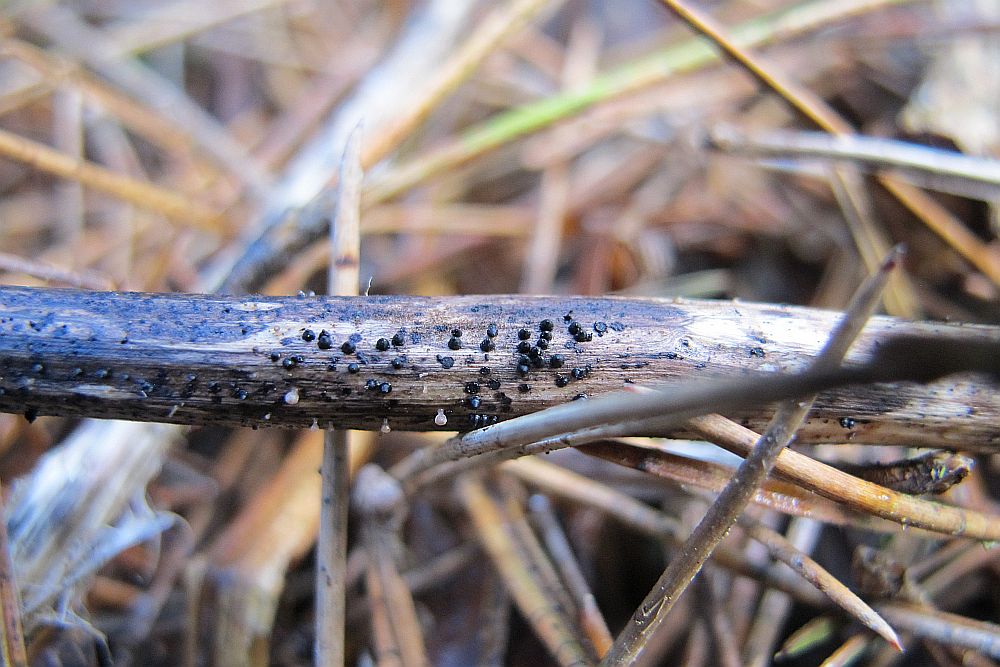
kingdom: Fungi
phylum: Ascomycota
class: Dothideomycetes
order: Pleosporales
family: Leptosphaeriaceae
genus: Leptosphaeria
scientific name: Leptosphaeria acuta
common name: spids kulkegle
